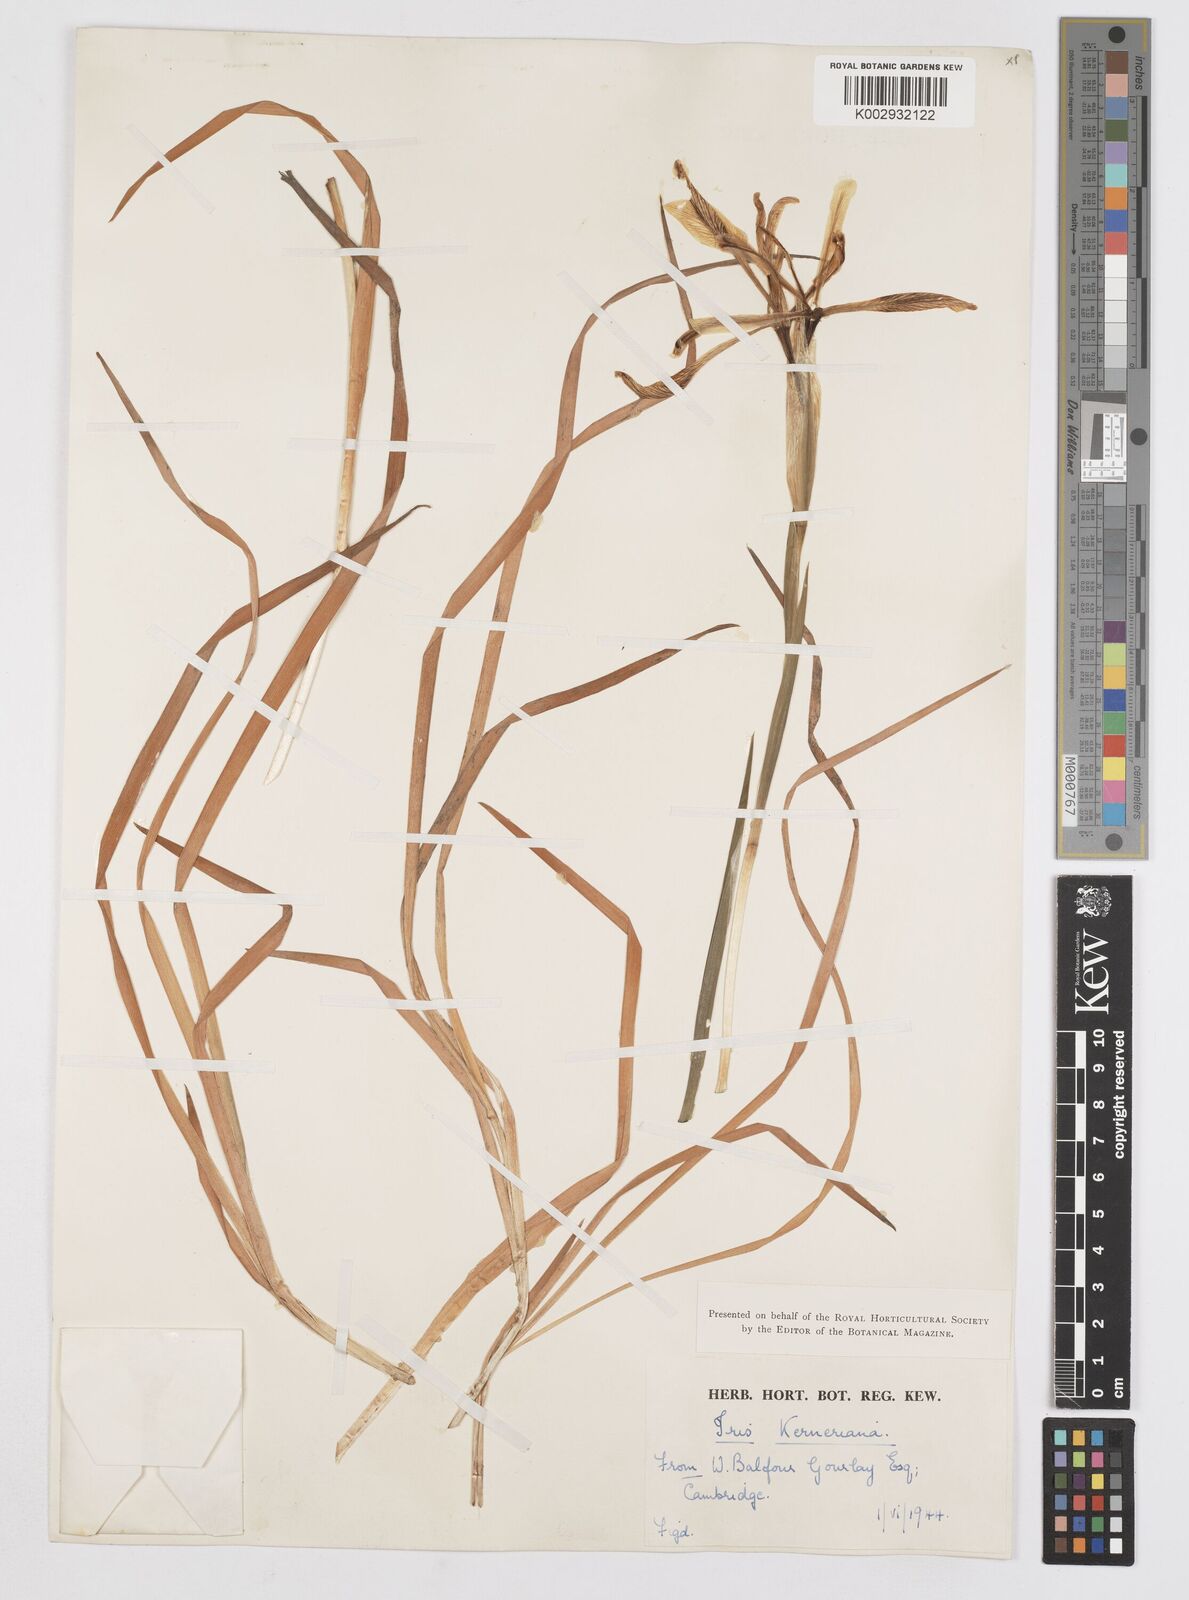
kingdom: Plantae
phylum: Tracheophyta
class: Liliopsida
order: Asparagales
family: Iridaceae
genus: Iris
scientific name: Iris haussknechtii
